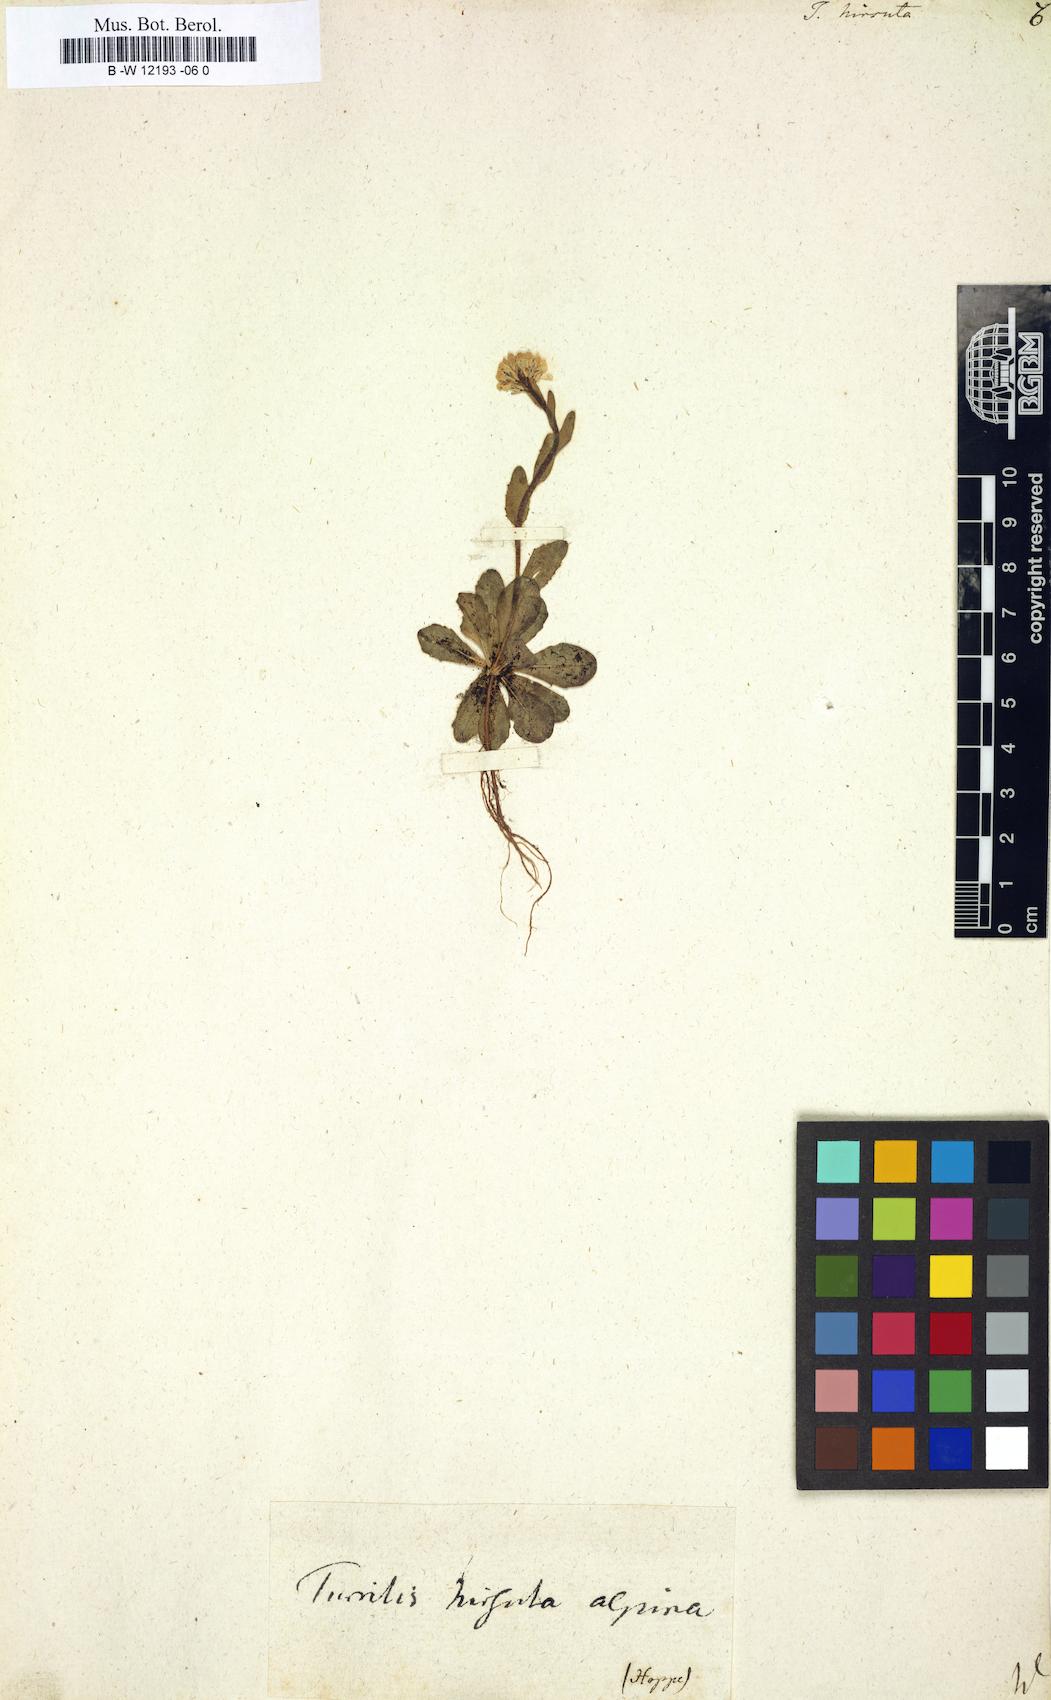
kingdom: Plantae
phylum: Tracheophyta
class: Magnoliopsida
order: Brassicales
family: Brassicaceae
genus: Turritis
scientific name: Turritis hirsuta
